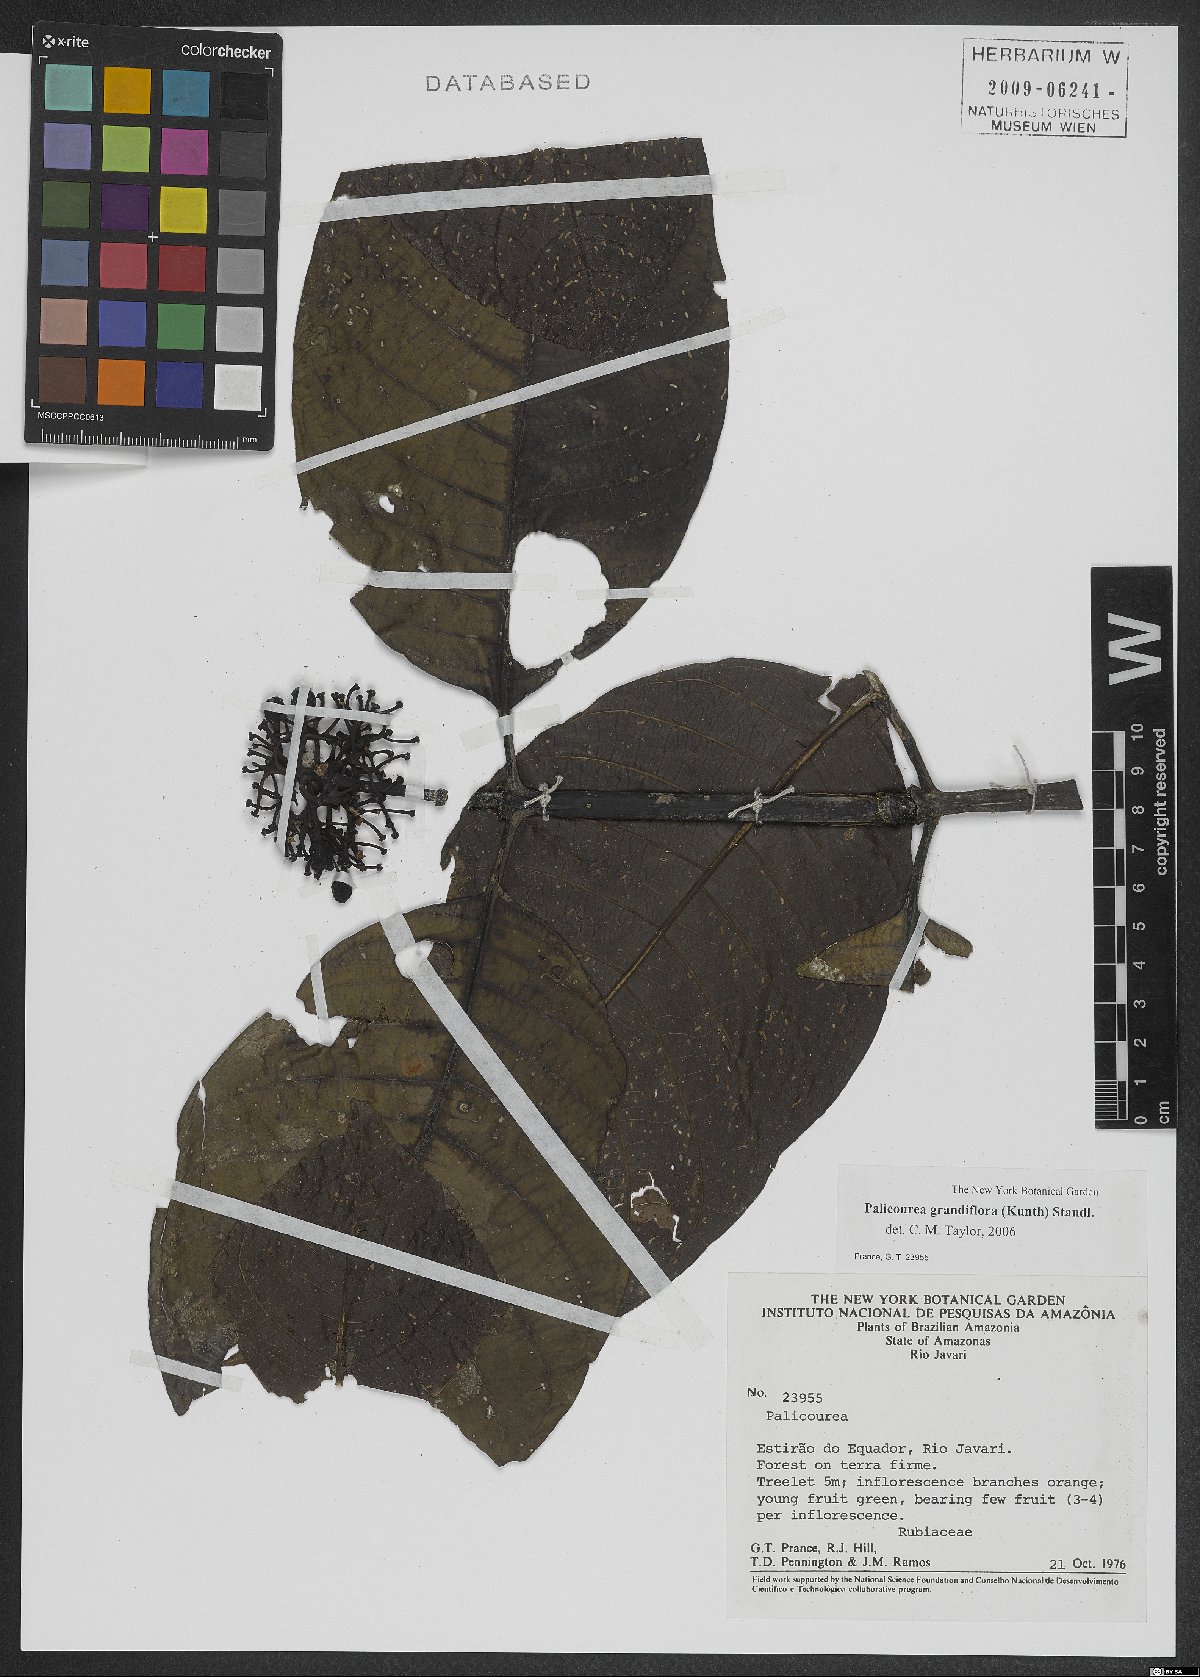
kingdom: Plantae
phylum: Tracheophyta
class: Magnoliopsida
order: Gentianales
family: Rubiaceae
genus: Palicourea
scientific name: Palicourea grandiflora
